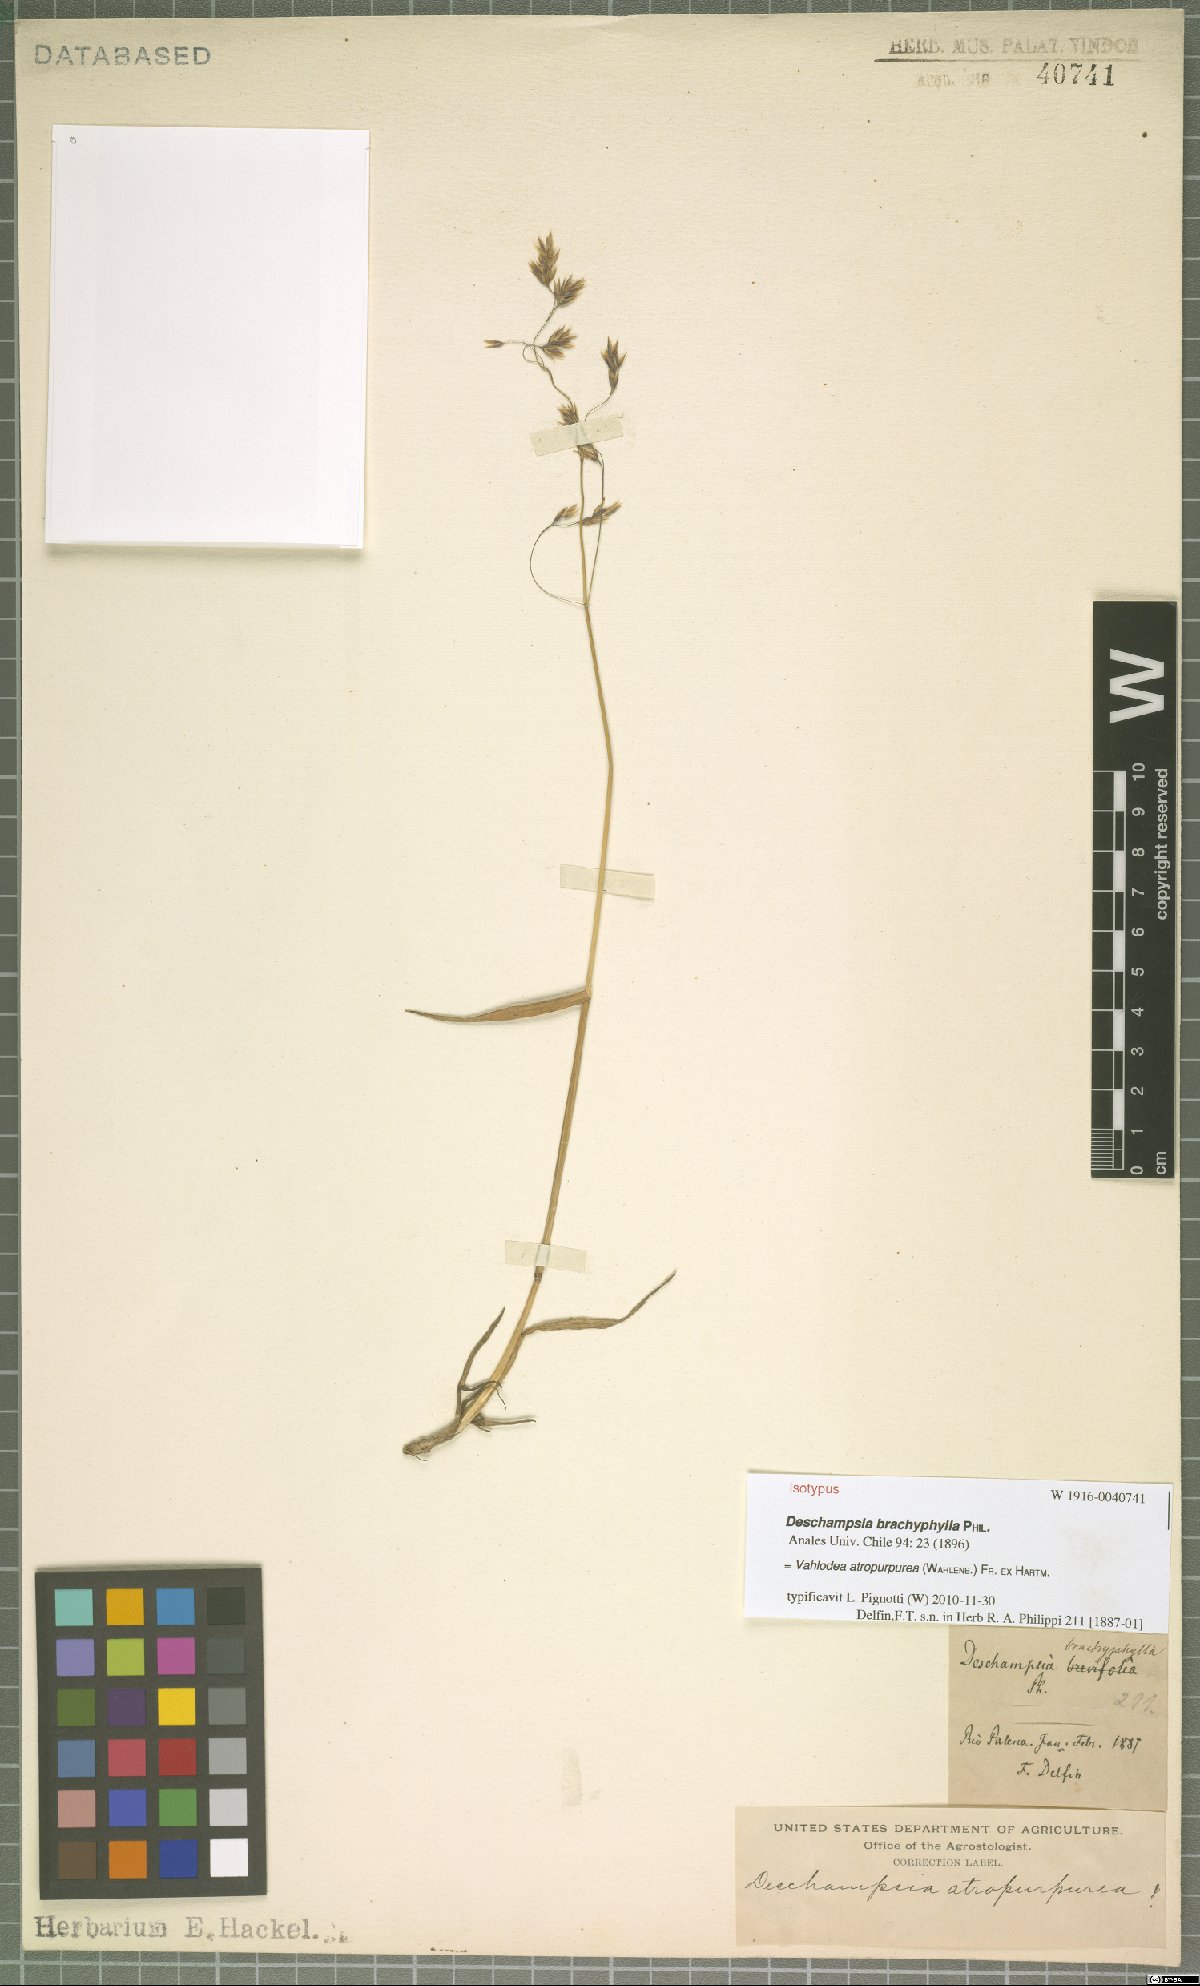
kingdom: Plantae
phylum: Tracheophyta
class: Liliopsida
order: Poales
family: Poaceae
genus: Vahlodea
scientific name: Vahlodea atropurpurea
